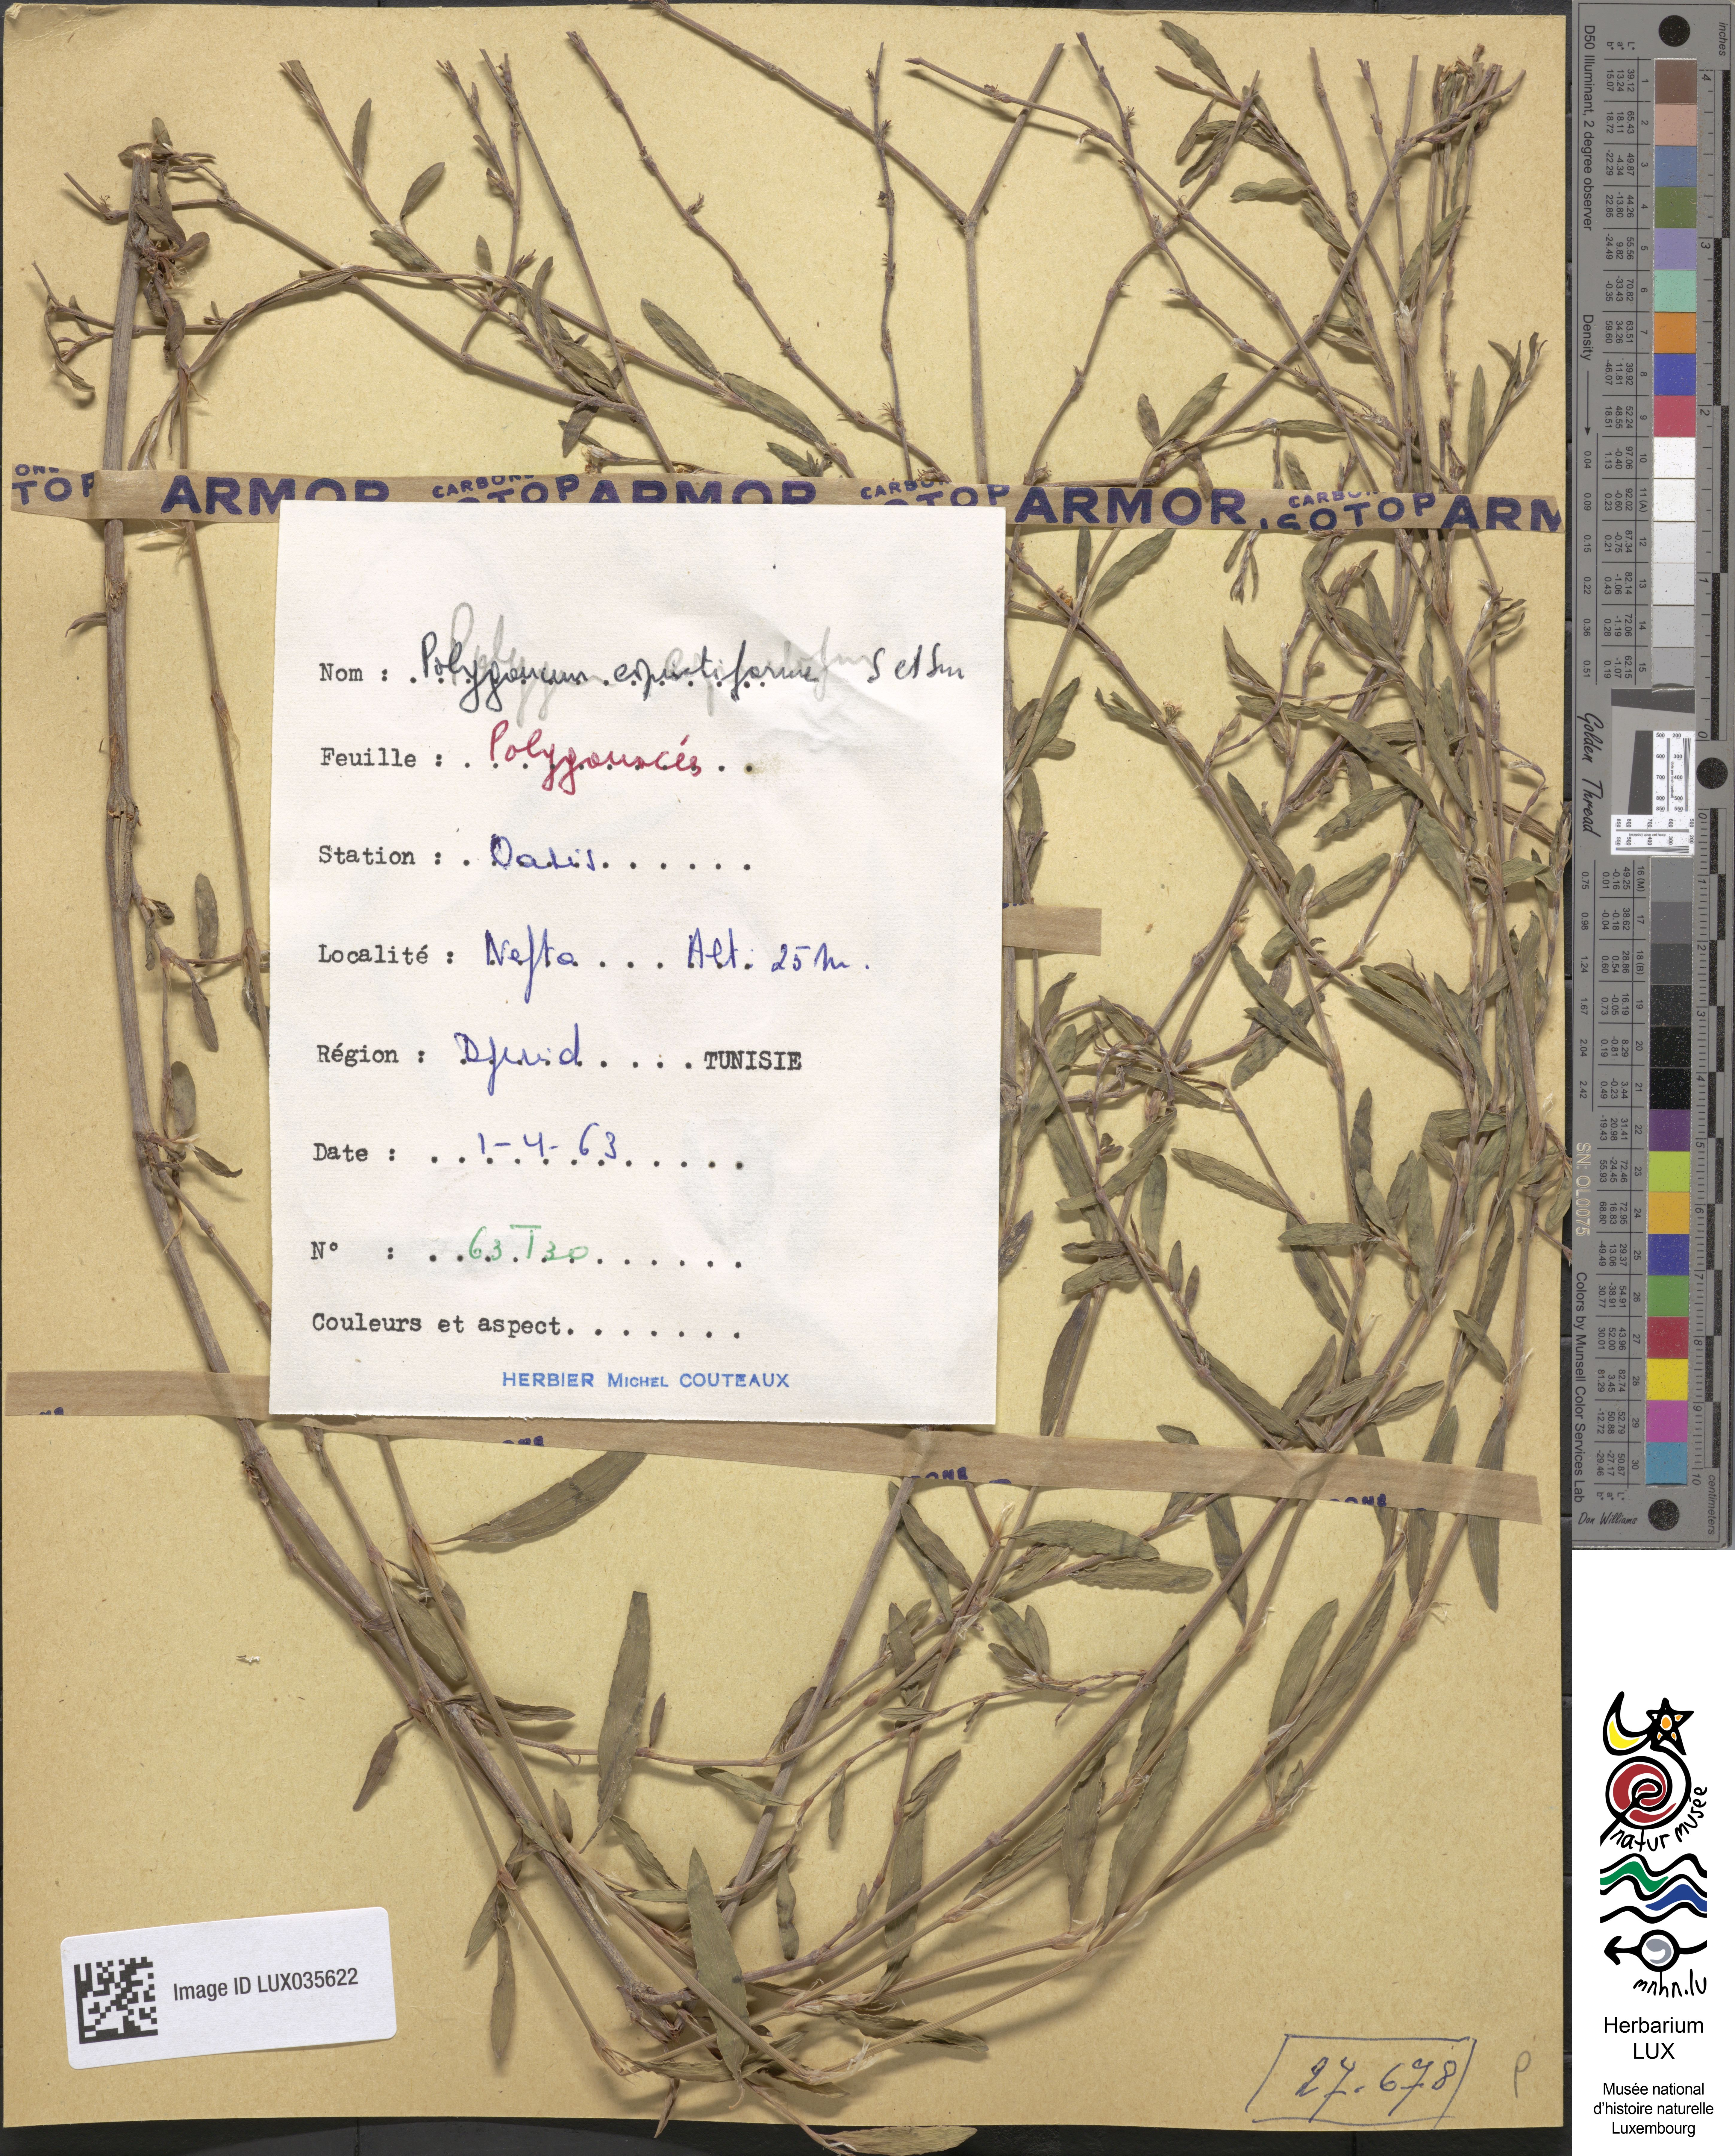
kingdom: Plantae
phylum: Tracheophyta
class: Magnoliopsida
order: Caryophyllales
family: Polygonaceae
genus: Polygonum
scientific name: Polygonum equisetiforme
